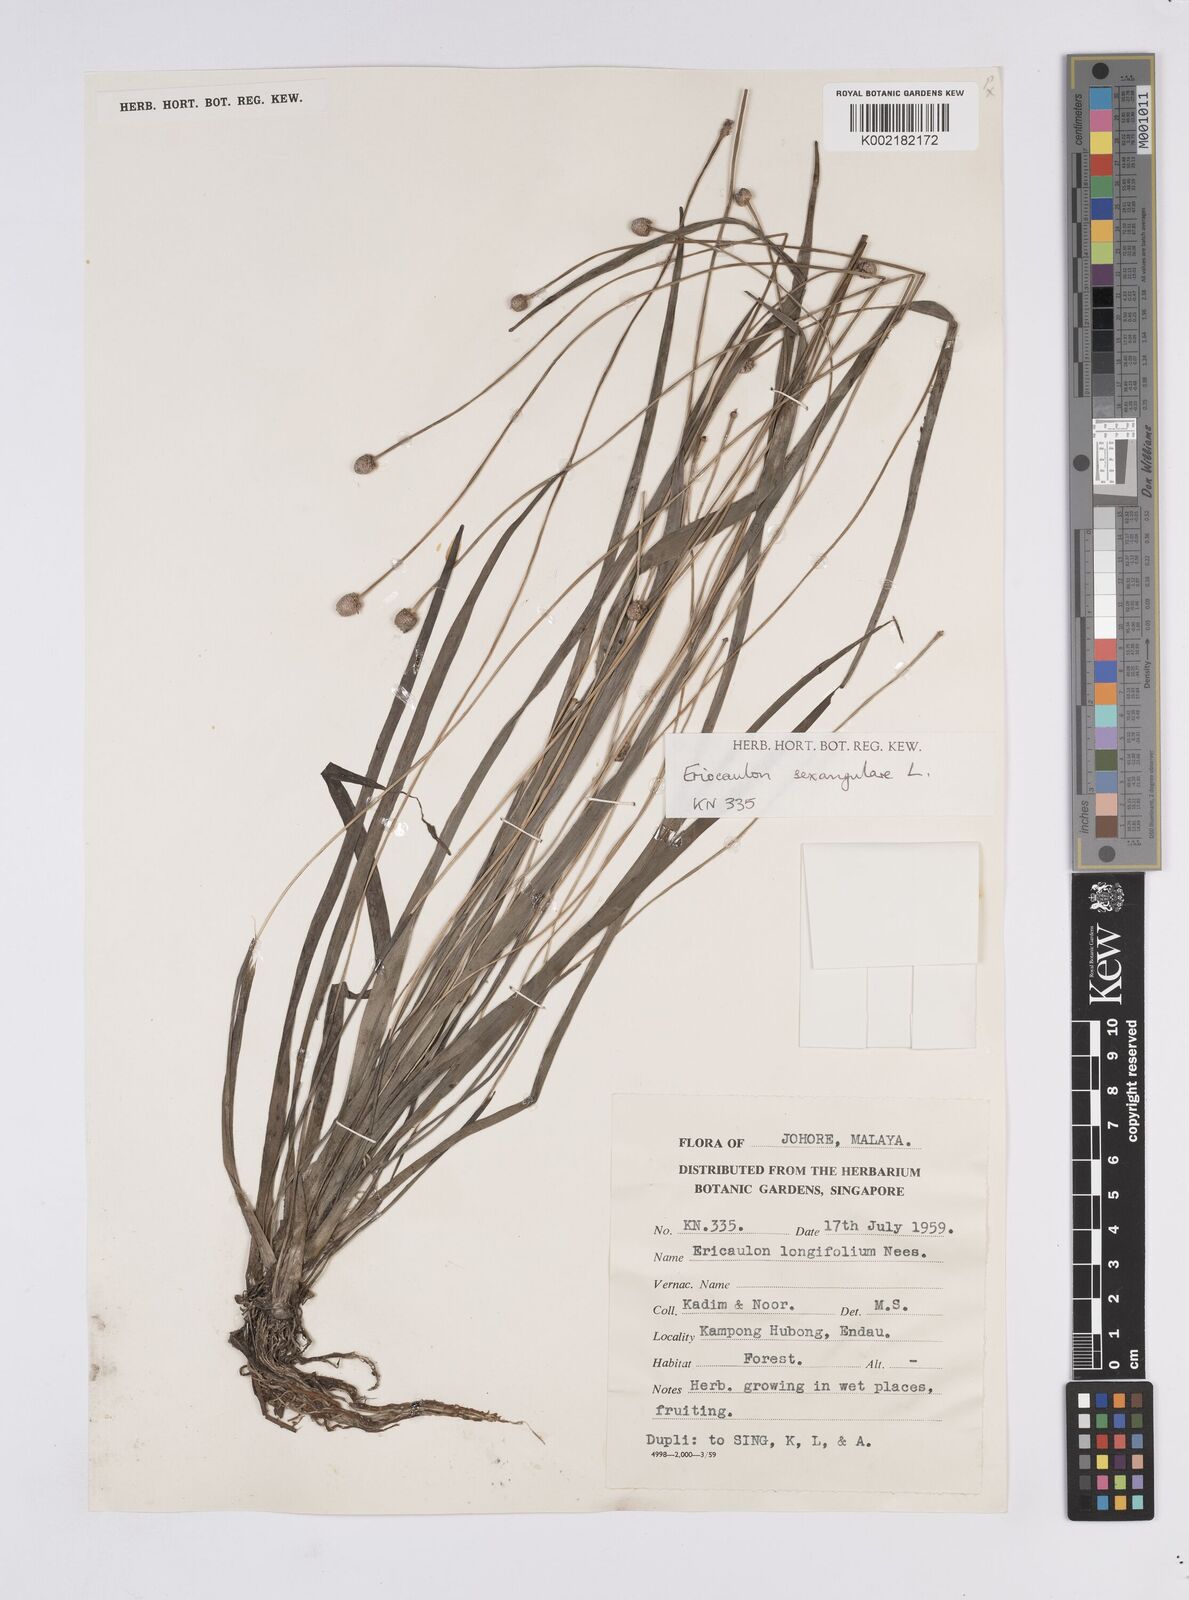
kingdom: Plantae
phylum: Tracheophyta
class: Liliopsida
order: Poales
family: Eriocaulaceae
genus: Eriocaulon
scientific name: Eriocaulon sexangulare
